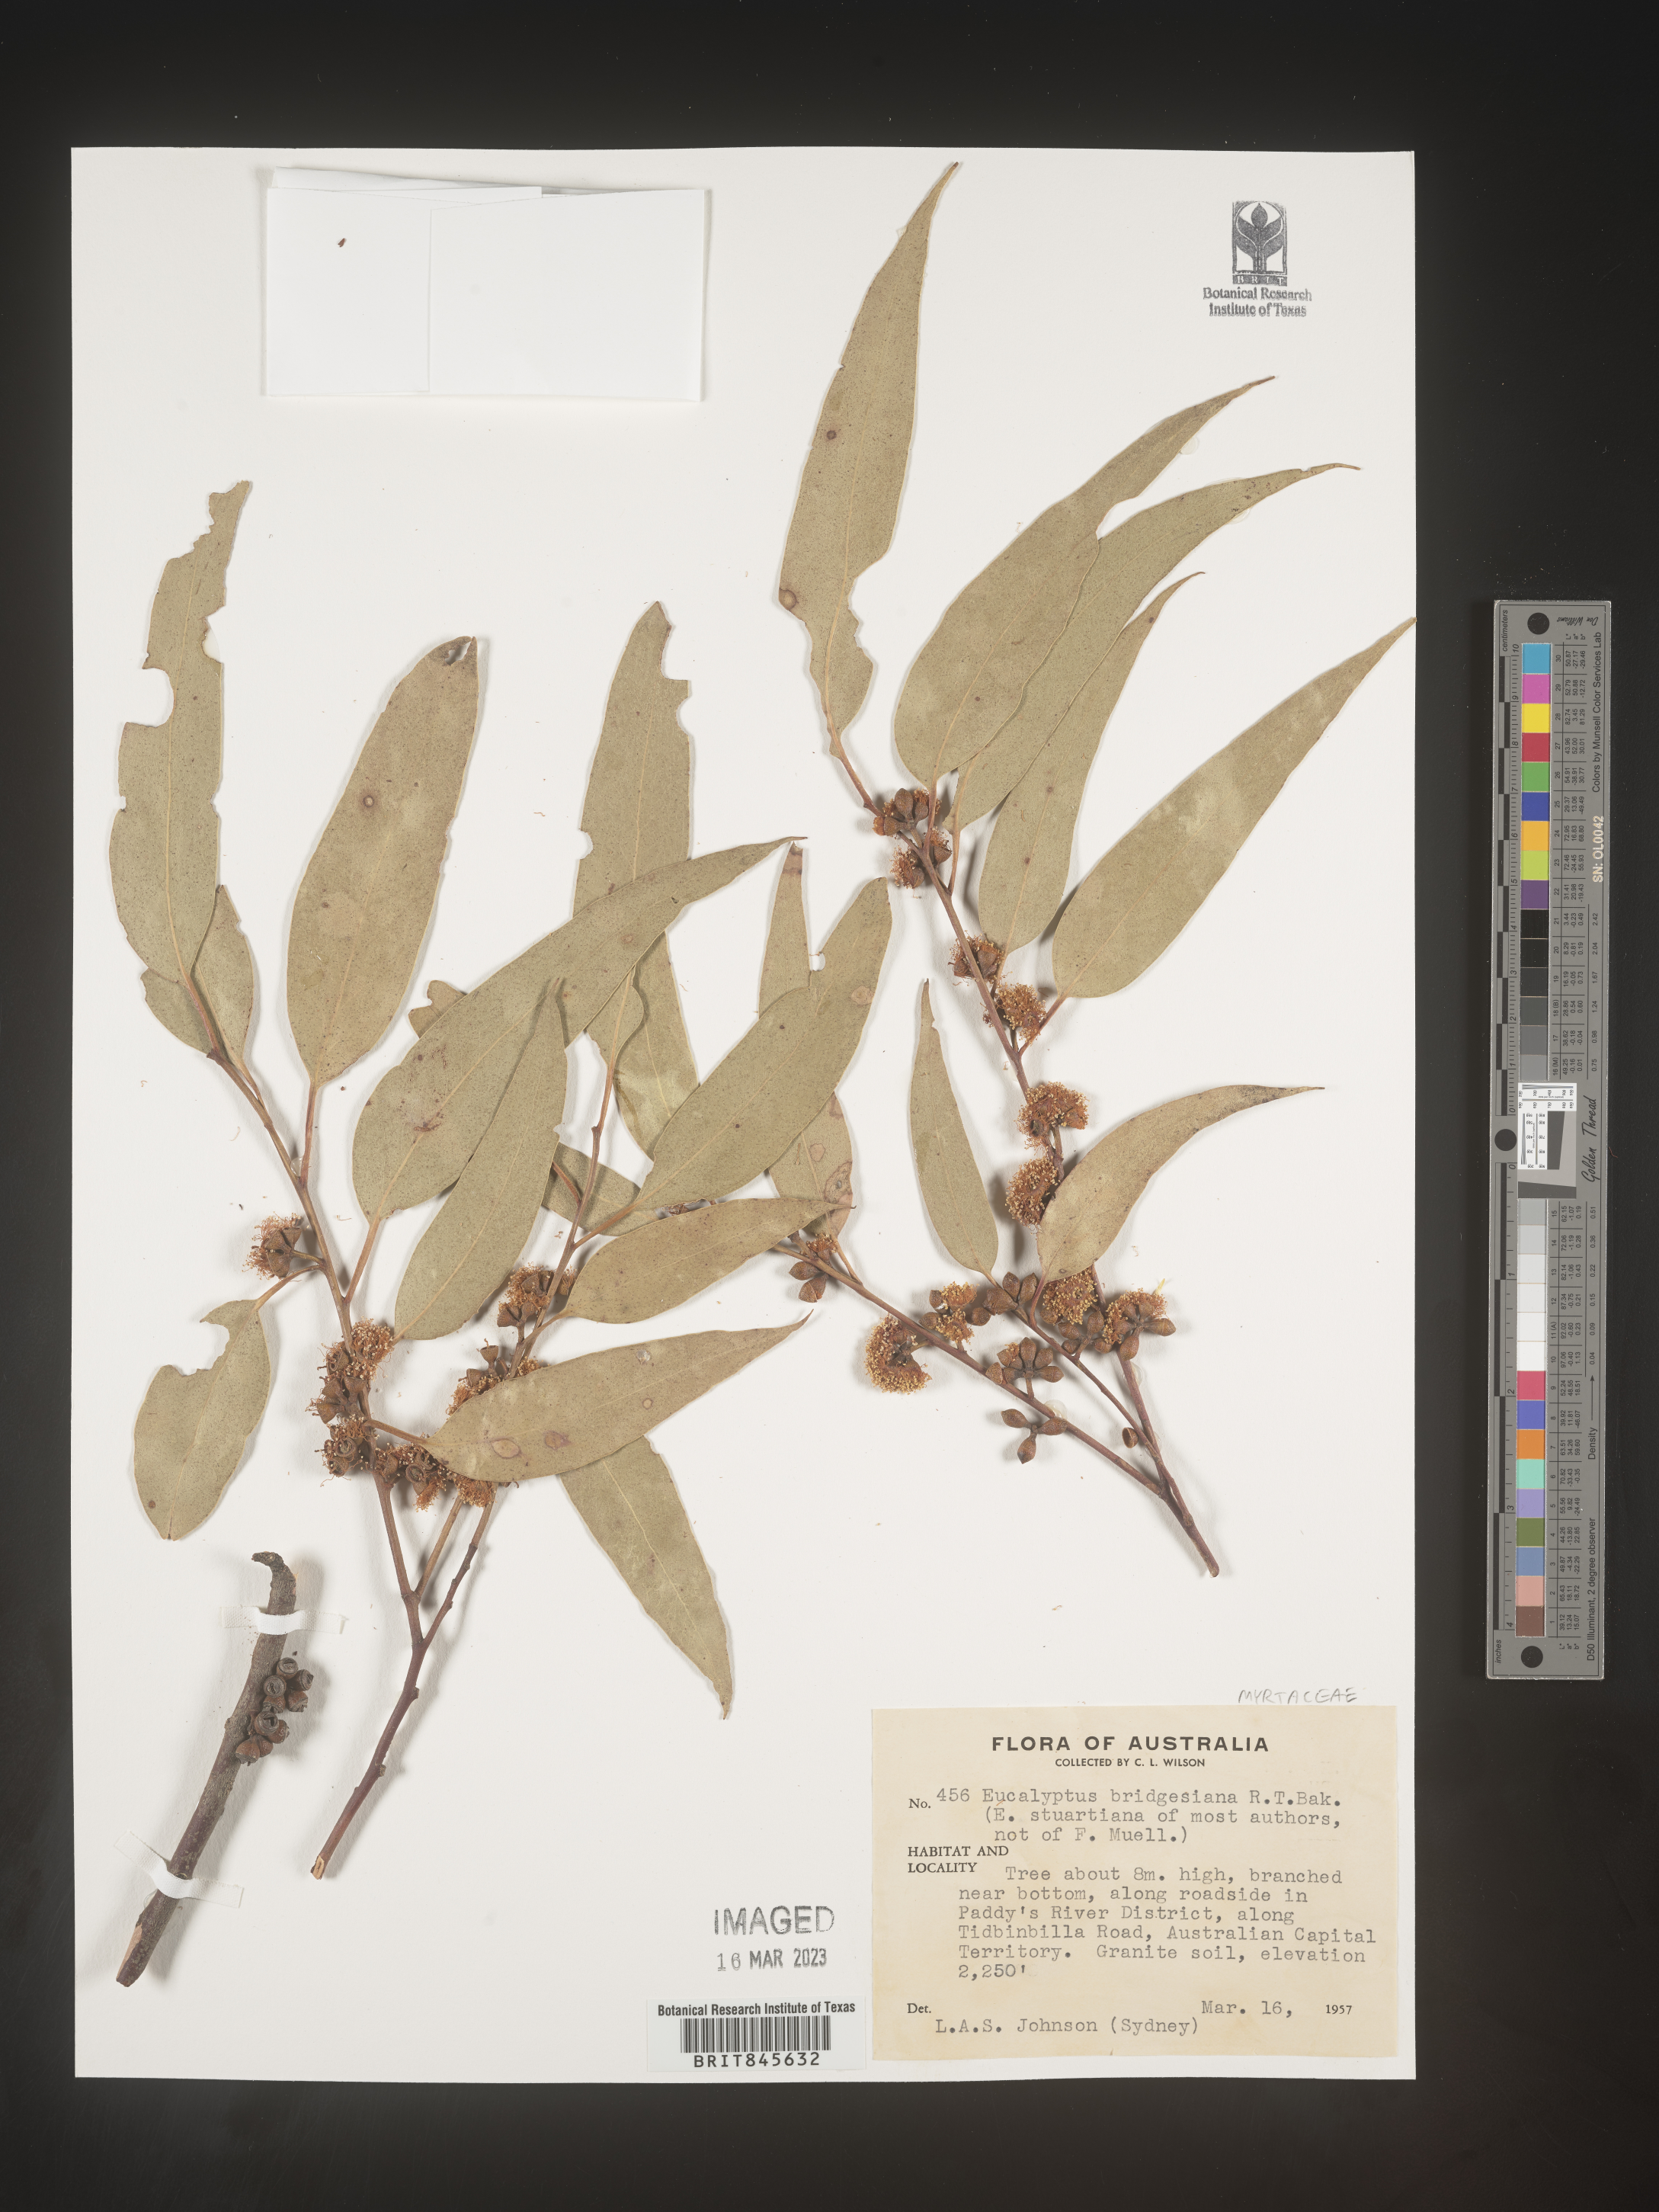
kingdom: Plantae
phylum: Tracheophyta
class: Magnoliopsida
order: Myrtales
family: Myrtaceae
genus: Eucalyptus
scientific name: Eucalyptus
